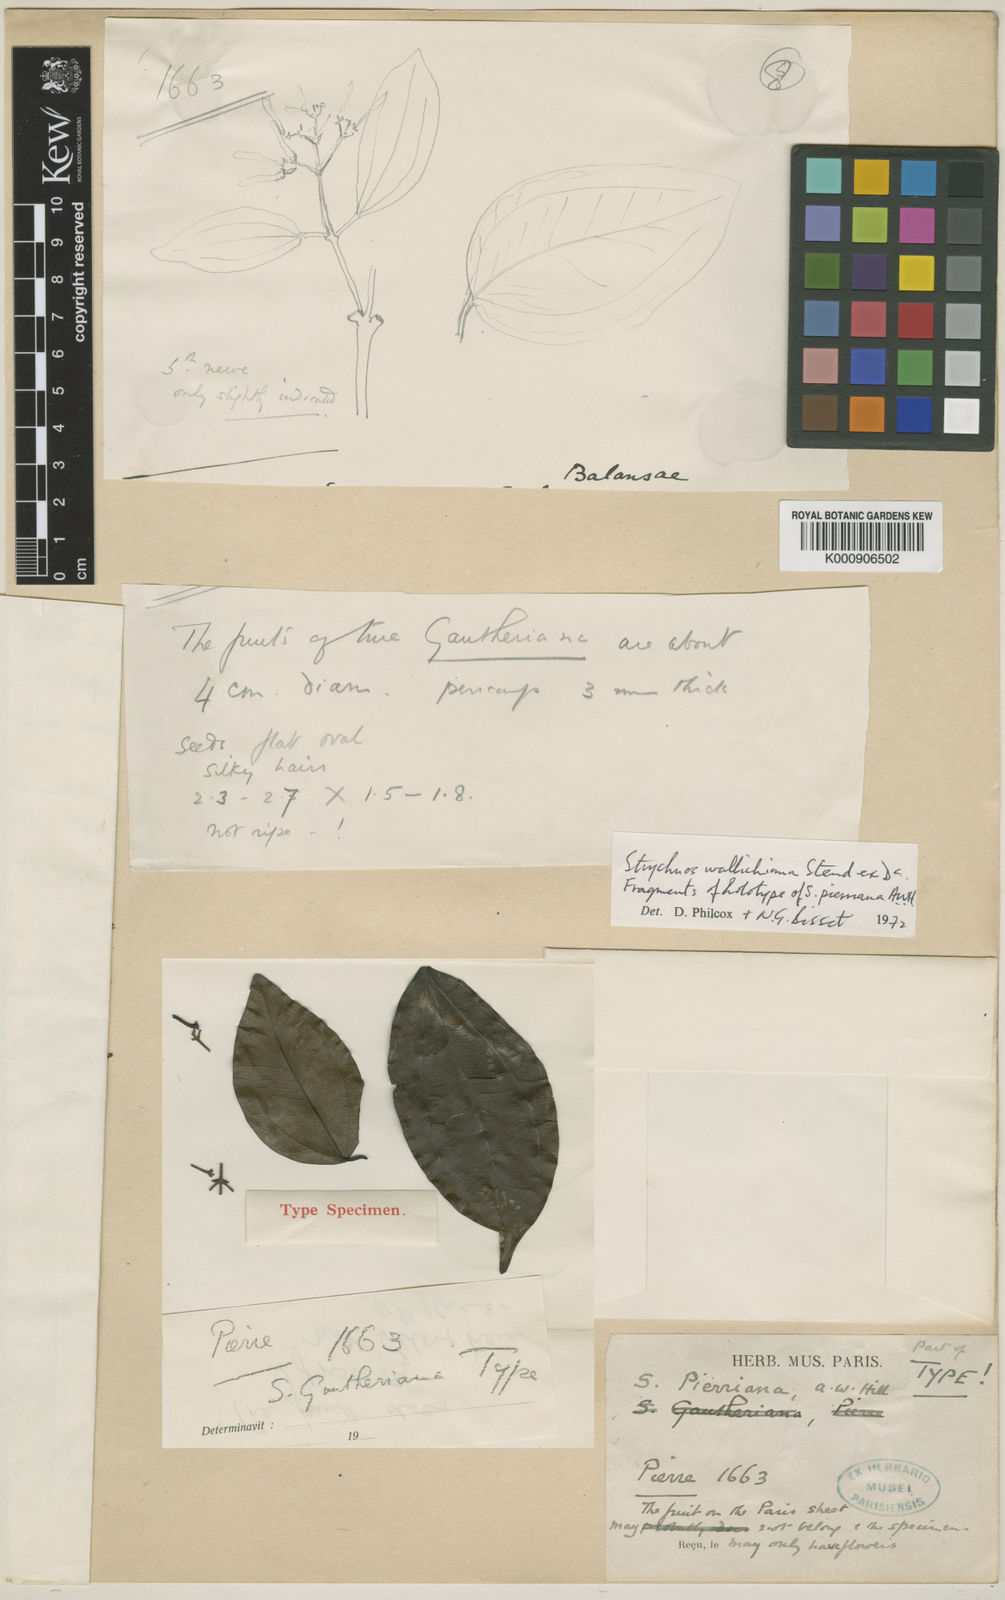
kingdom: Plantae
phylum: Tracheophyta
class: Magnoliopsida
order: Gentianales
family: Loganiaceae
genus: Strychnos
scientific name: Strychnos vanprukii
